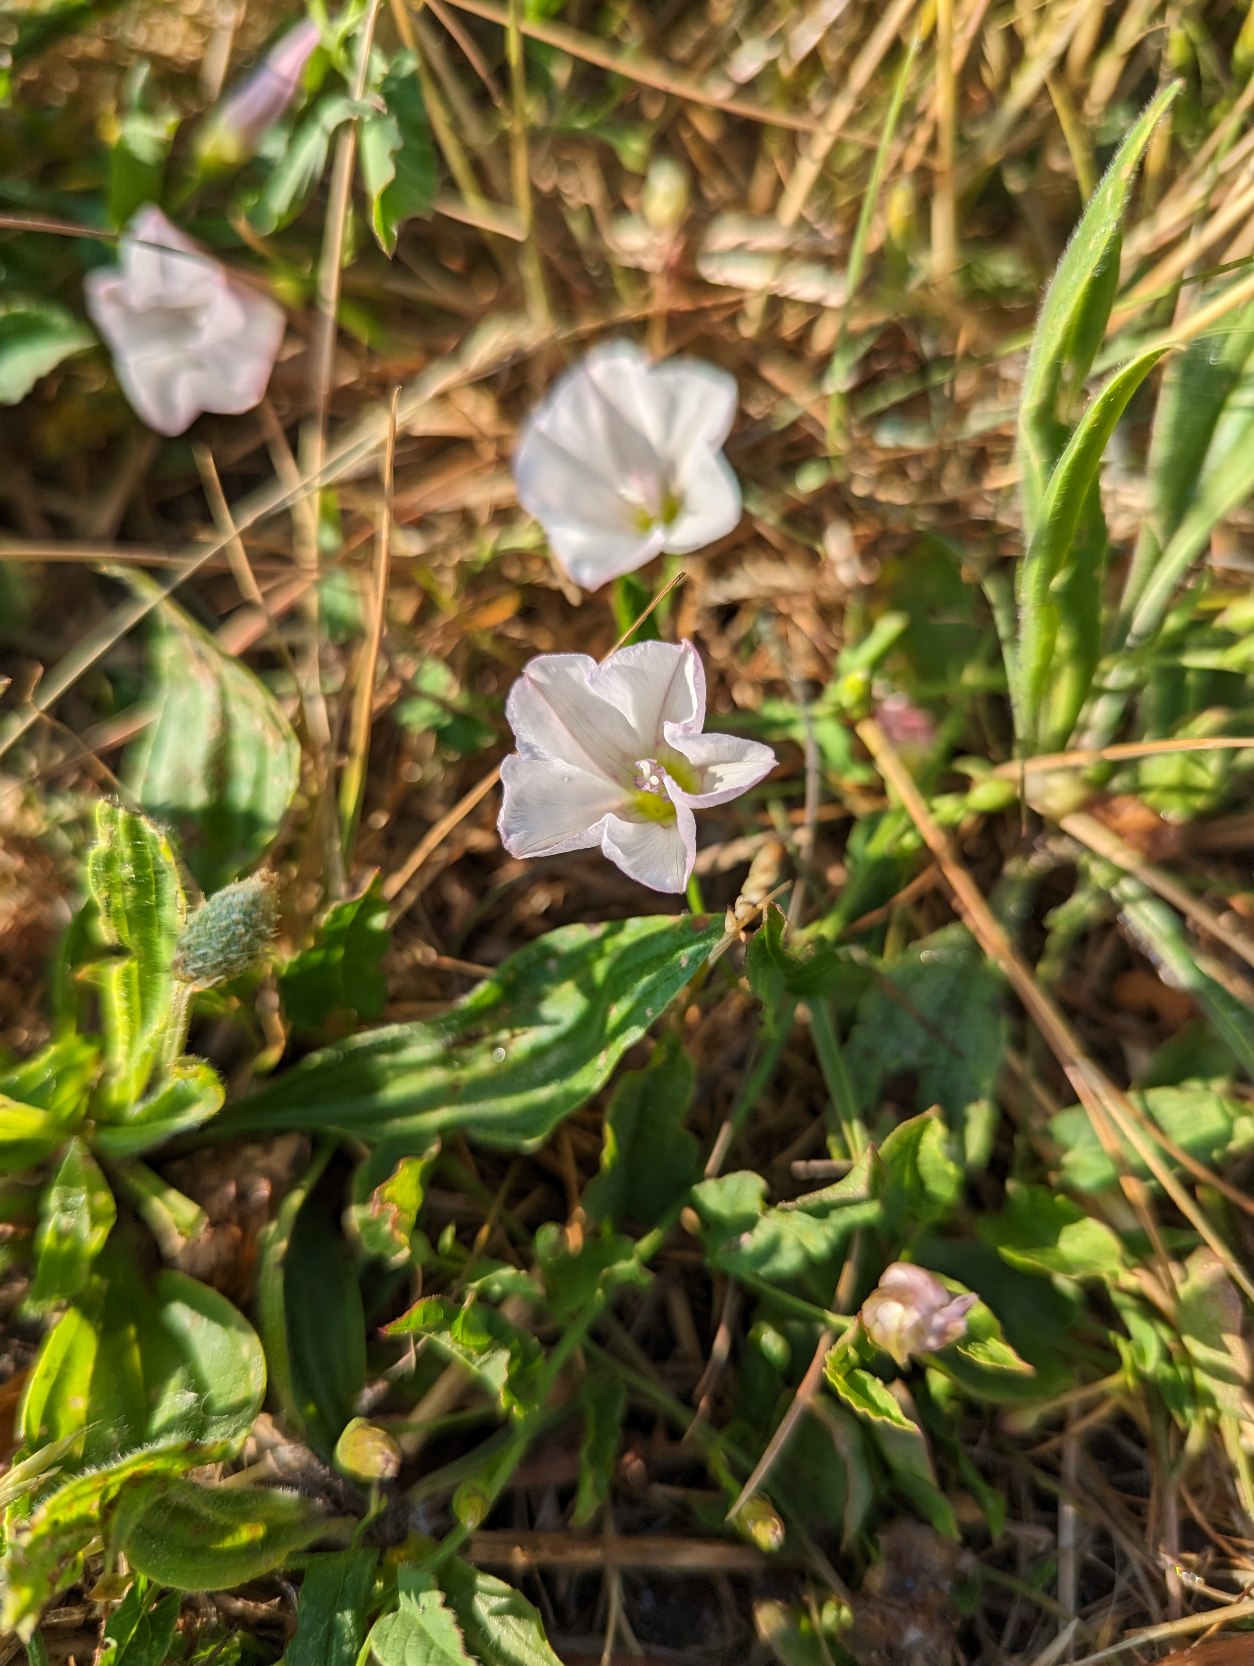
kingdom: Plantae
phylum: Tracheophyta
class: Magnoliopsida
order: Solanales
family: Convolvulaceae
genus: Convolvulus
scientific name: Convolvulus arvensis
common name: Ager-snerle
